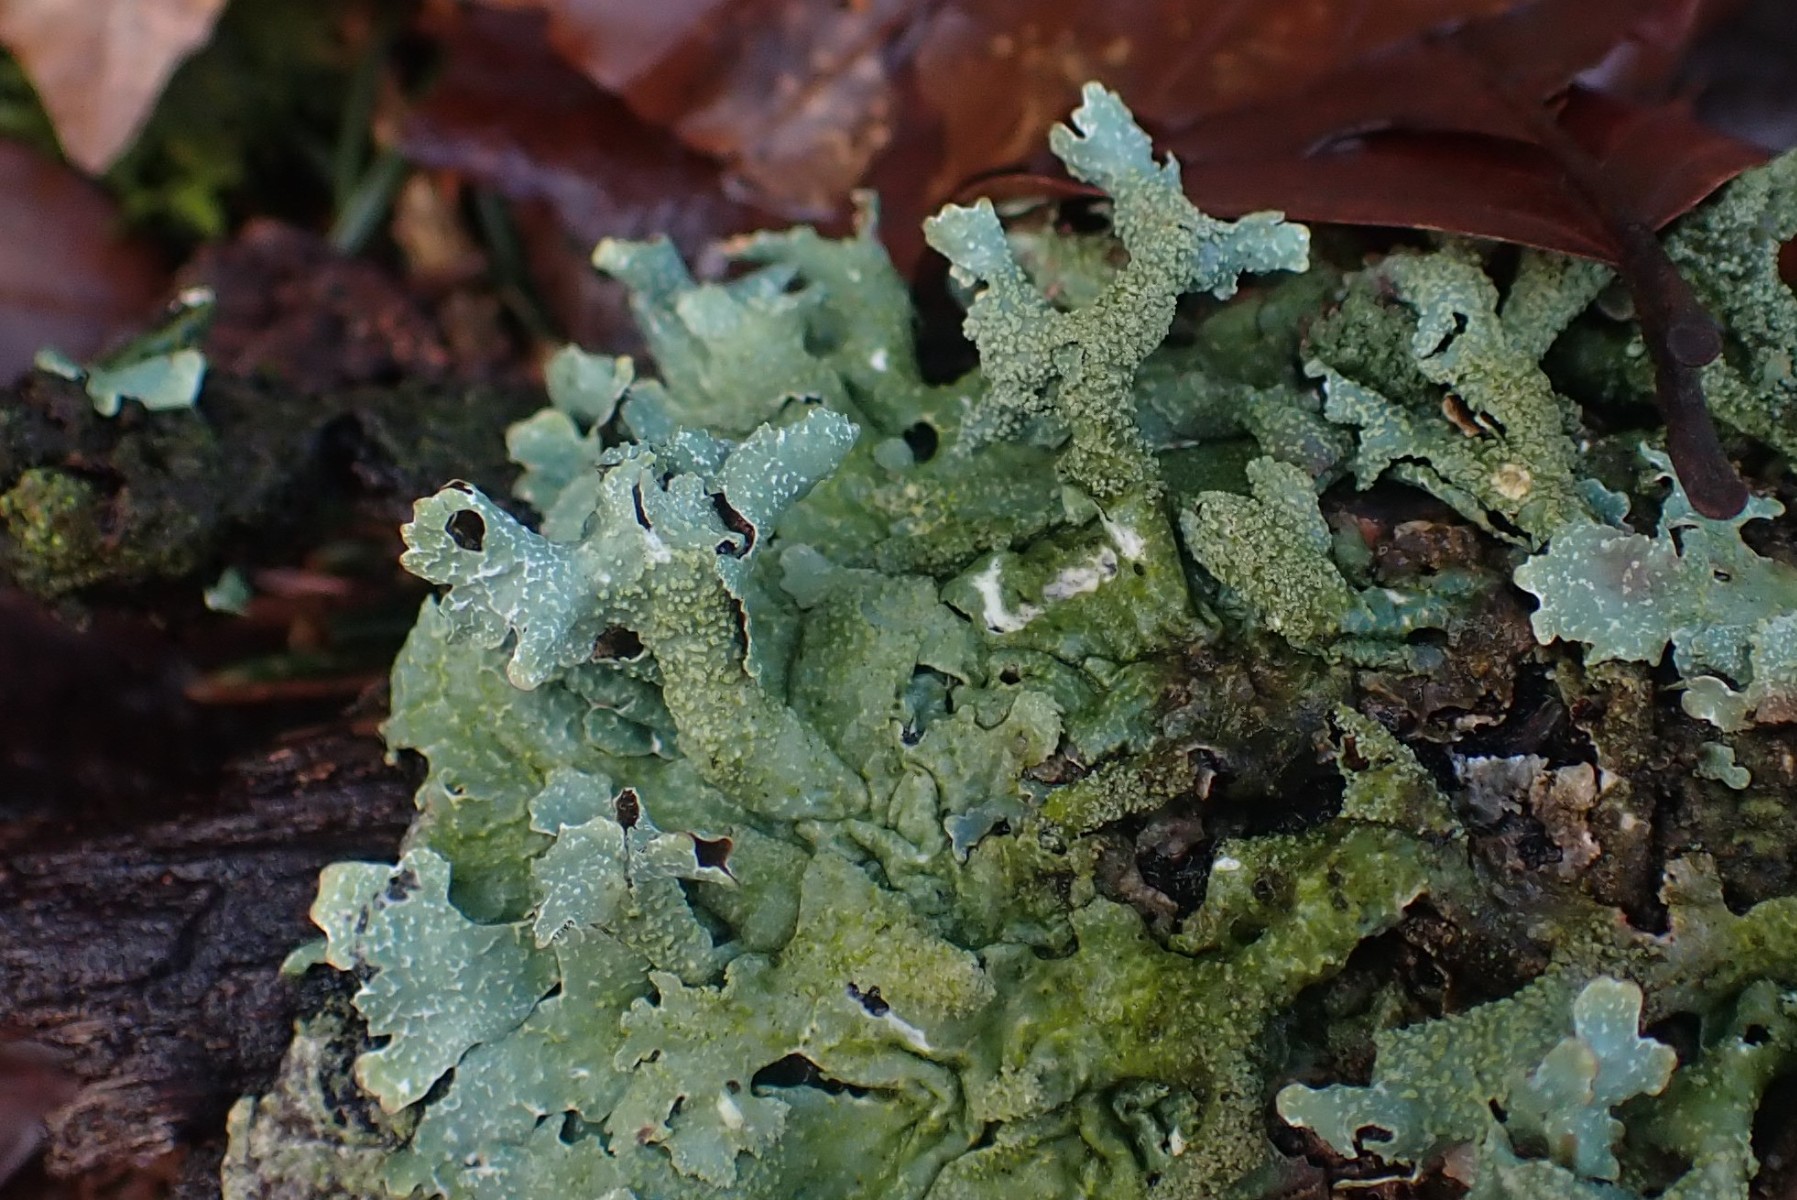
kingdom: Fungi
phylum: Ascomycota
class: Lecanoromycetes
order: Lecanorales
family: Parmeliaceae
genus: Parmelia
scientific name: Parmelia submontana
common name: langlobet skållav
